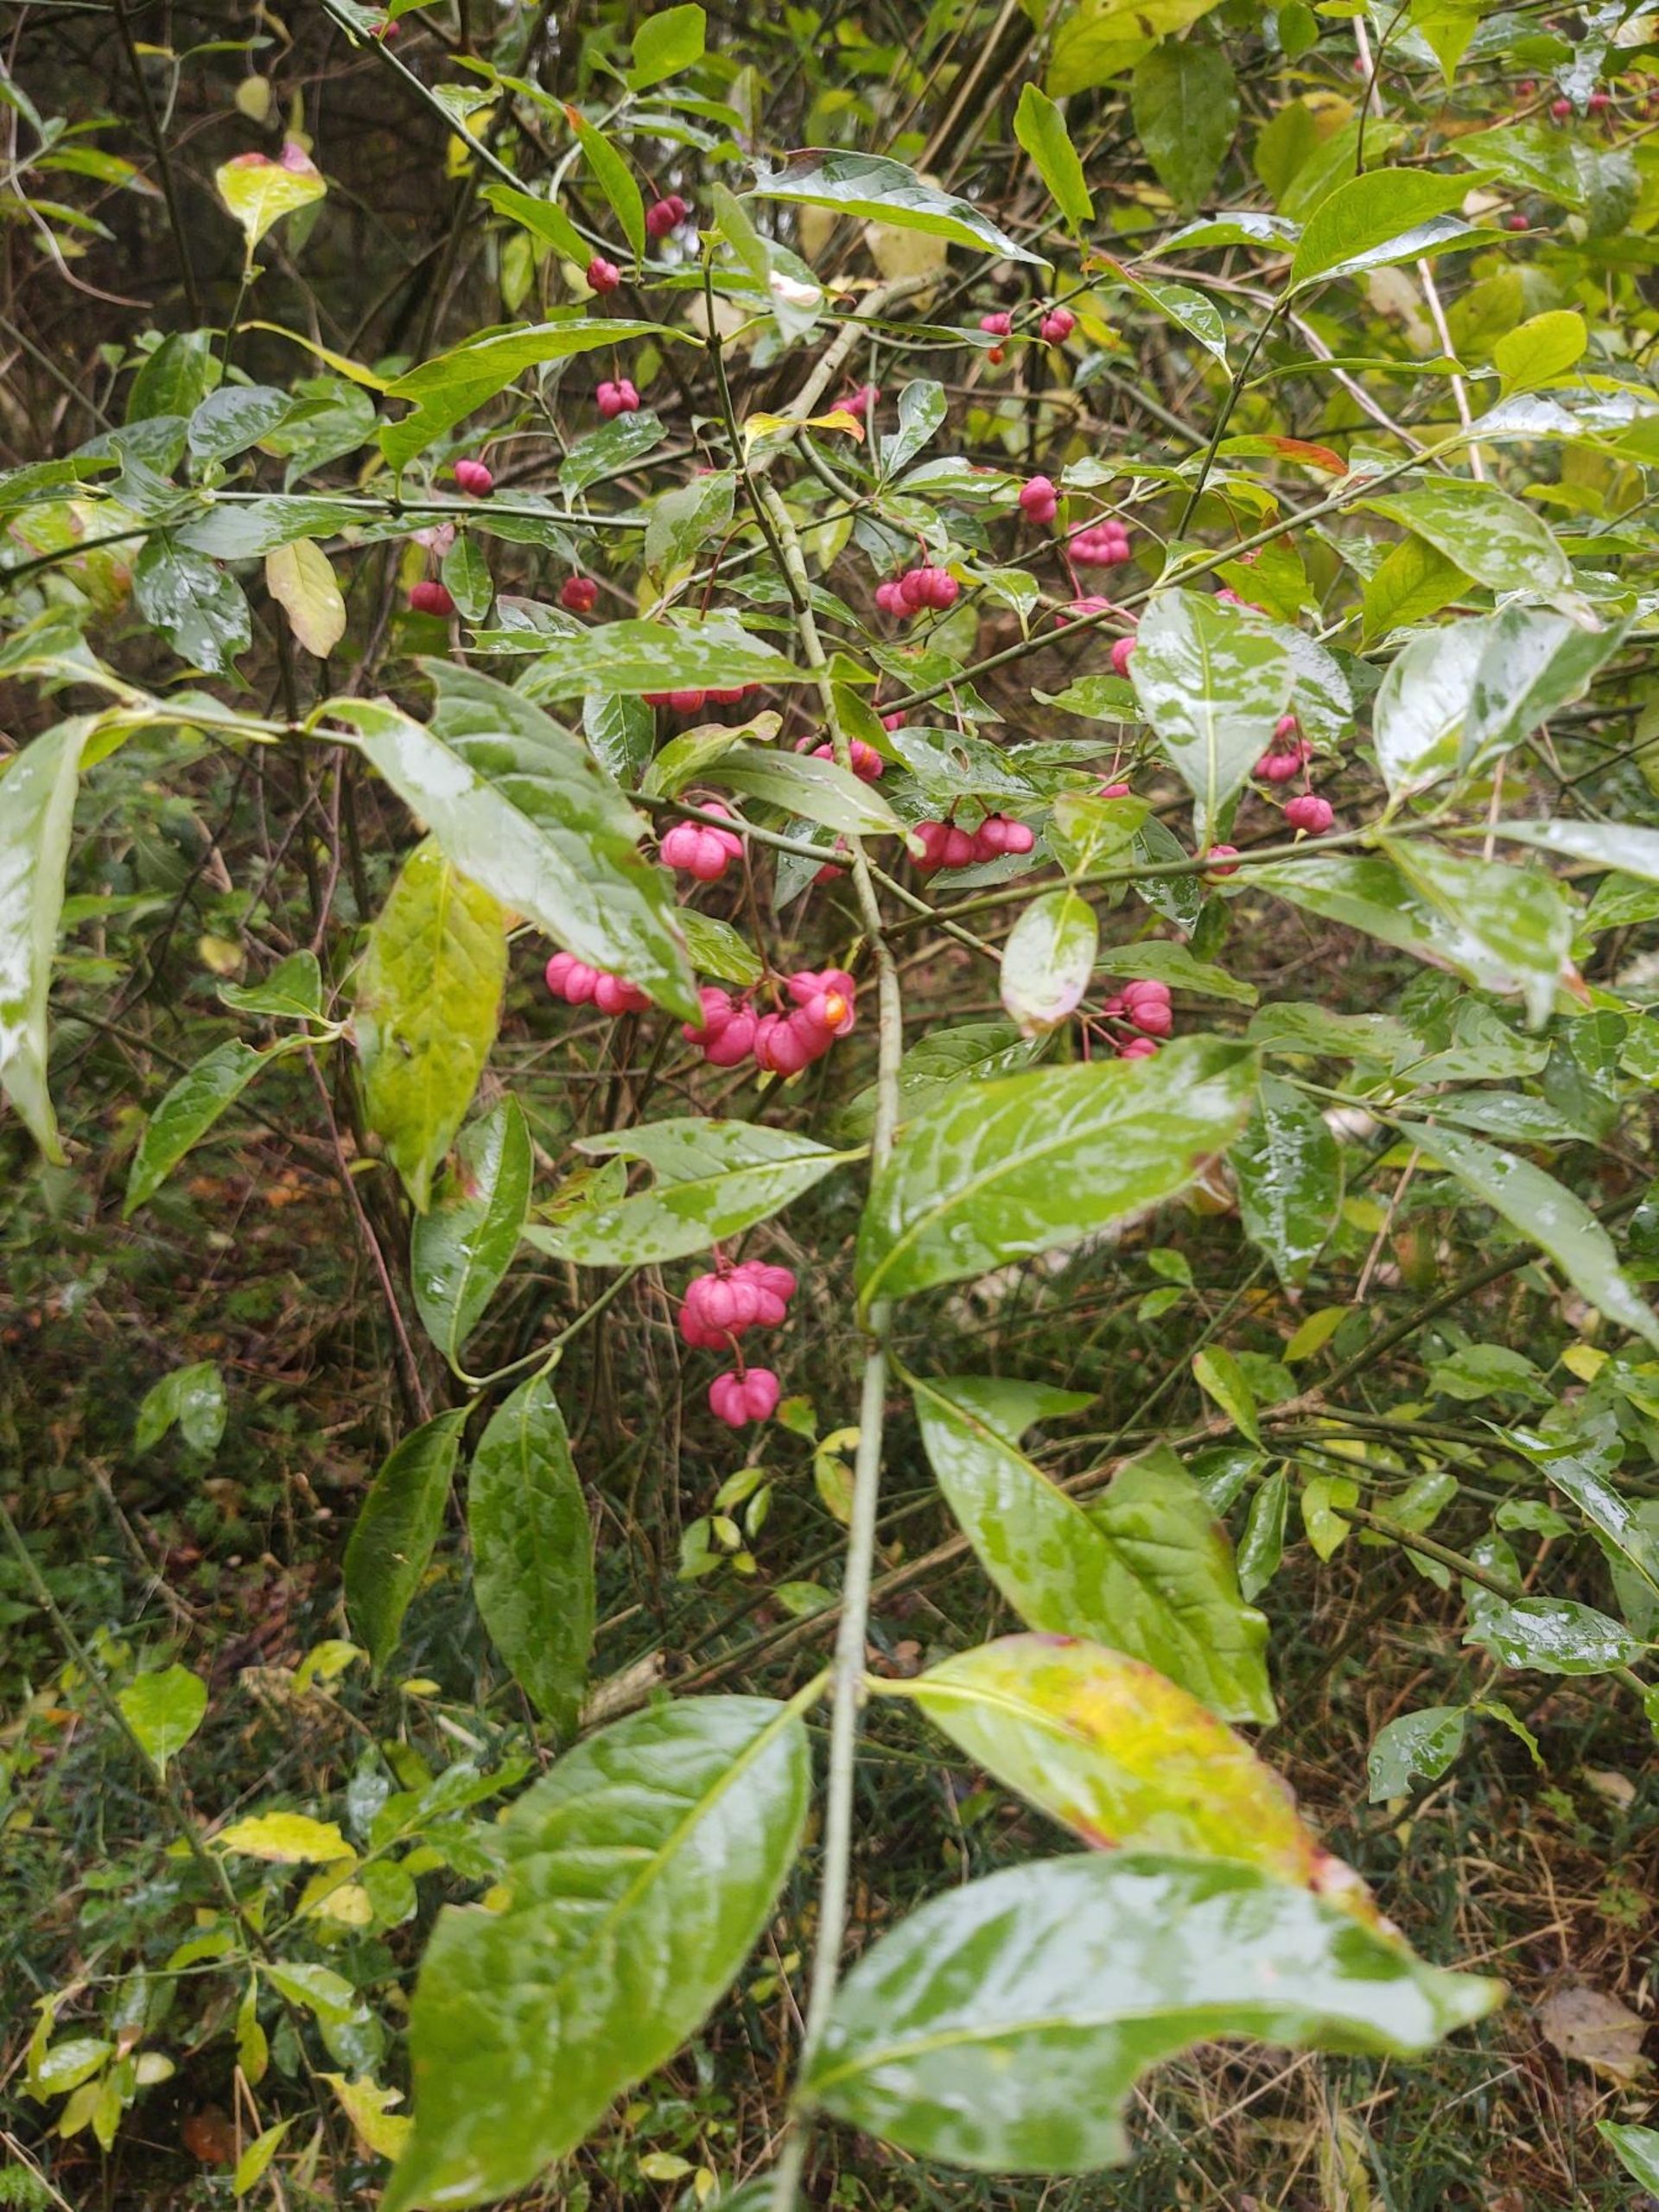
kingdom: Plantae
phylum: Tracheophyta
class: Magnoliopsida
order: Celastrales
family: Celastraceae
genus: Euonymus
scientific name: Euonymus europaeus
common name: Benved
